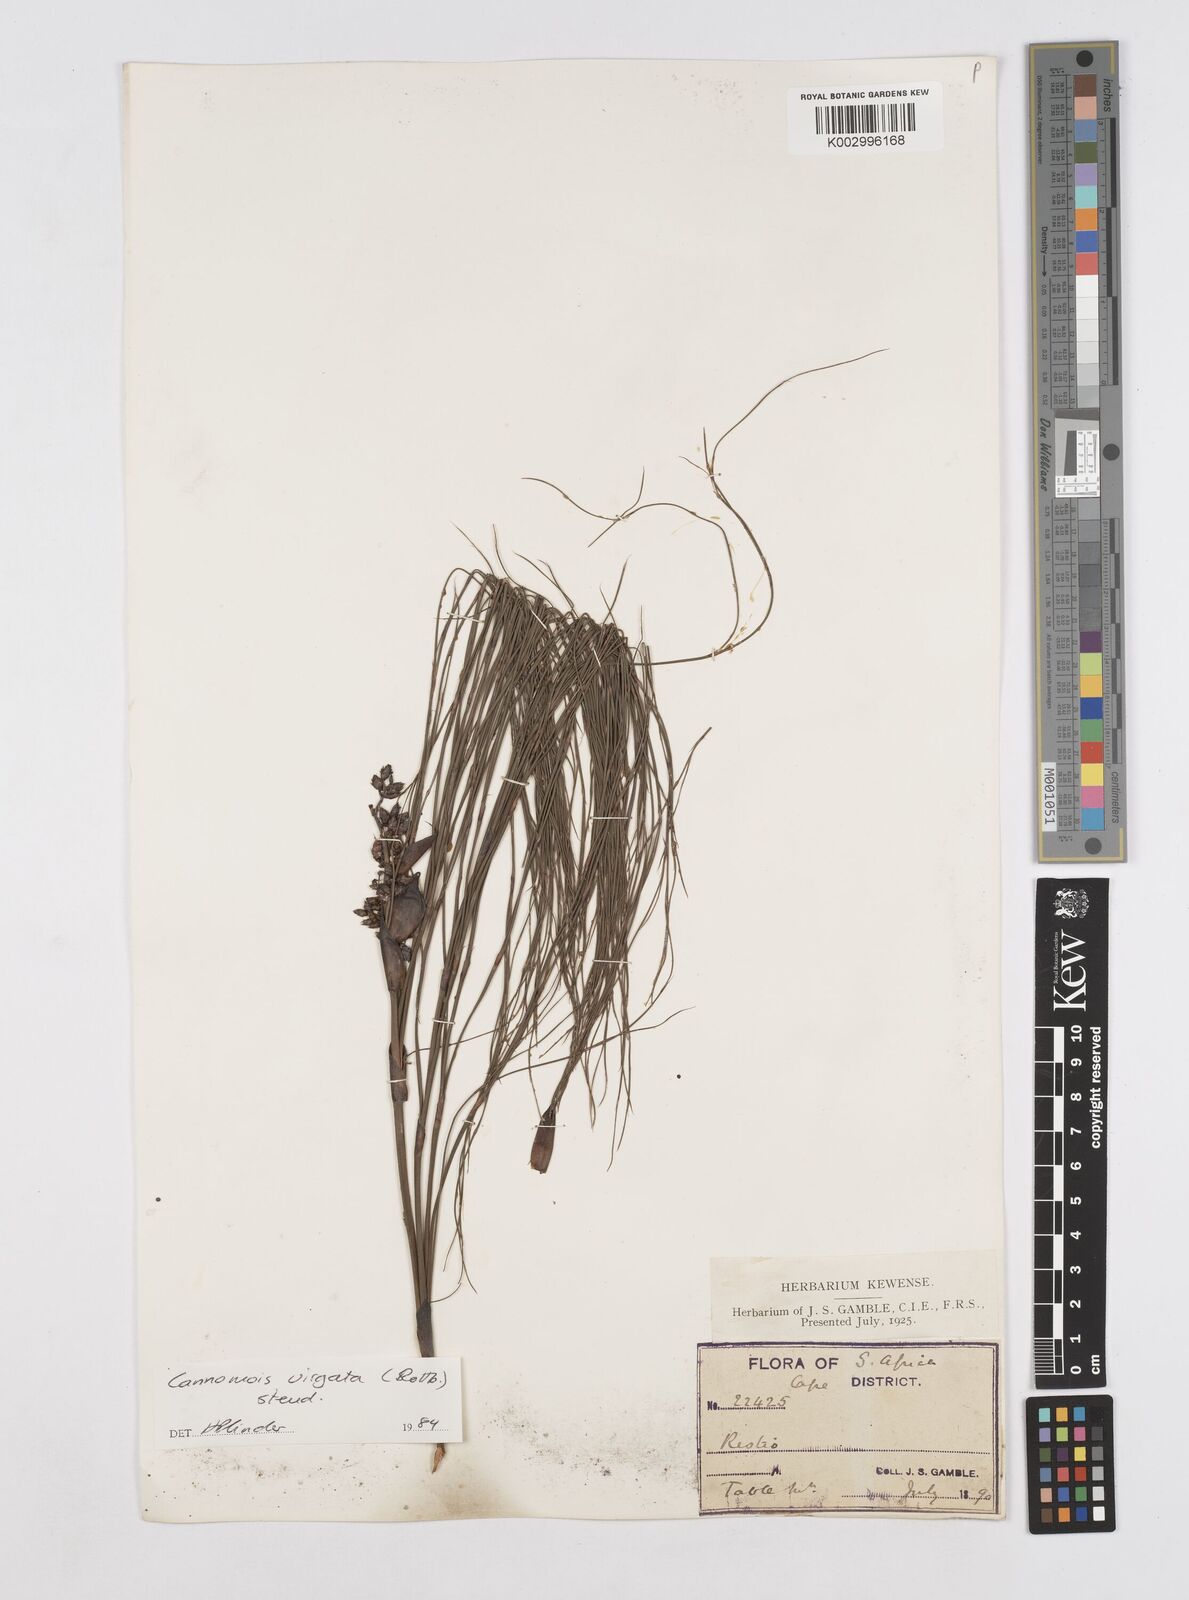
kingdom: Plantae
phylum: Tracheophyta
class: Liliopsida
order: Poales
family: Restionaceae
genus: Cannomois
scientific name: Cannomois virgata
